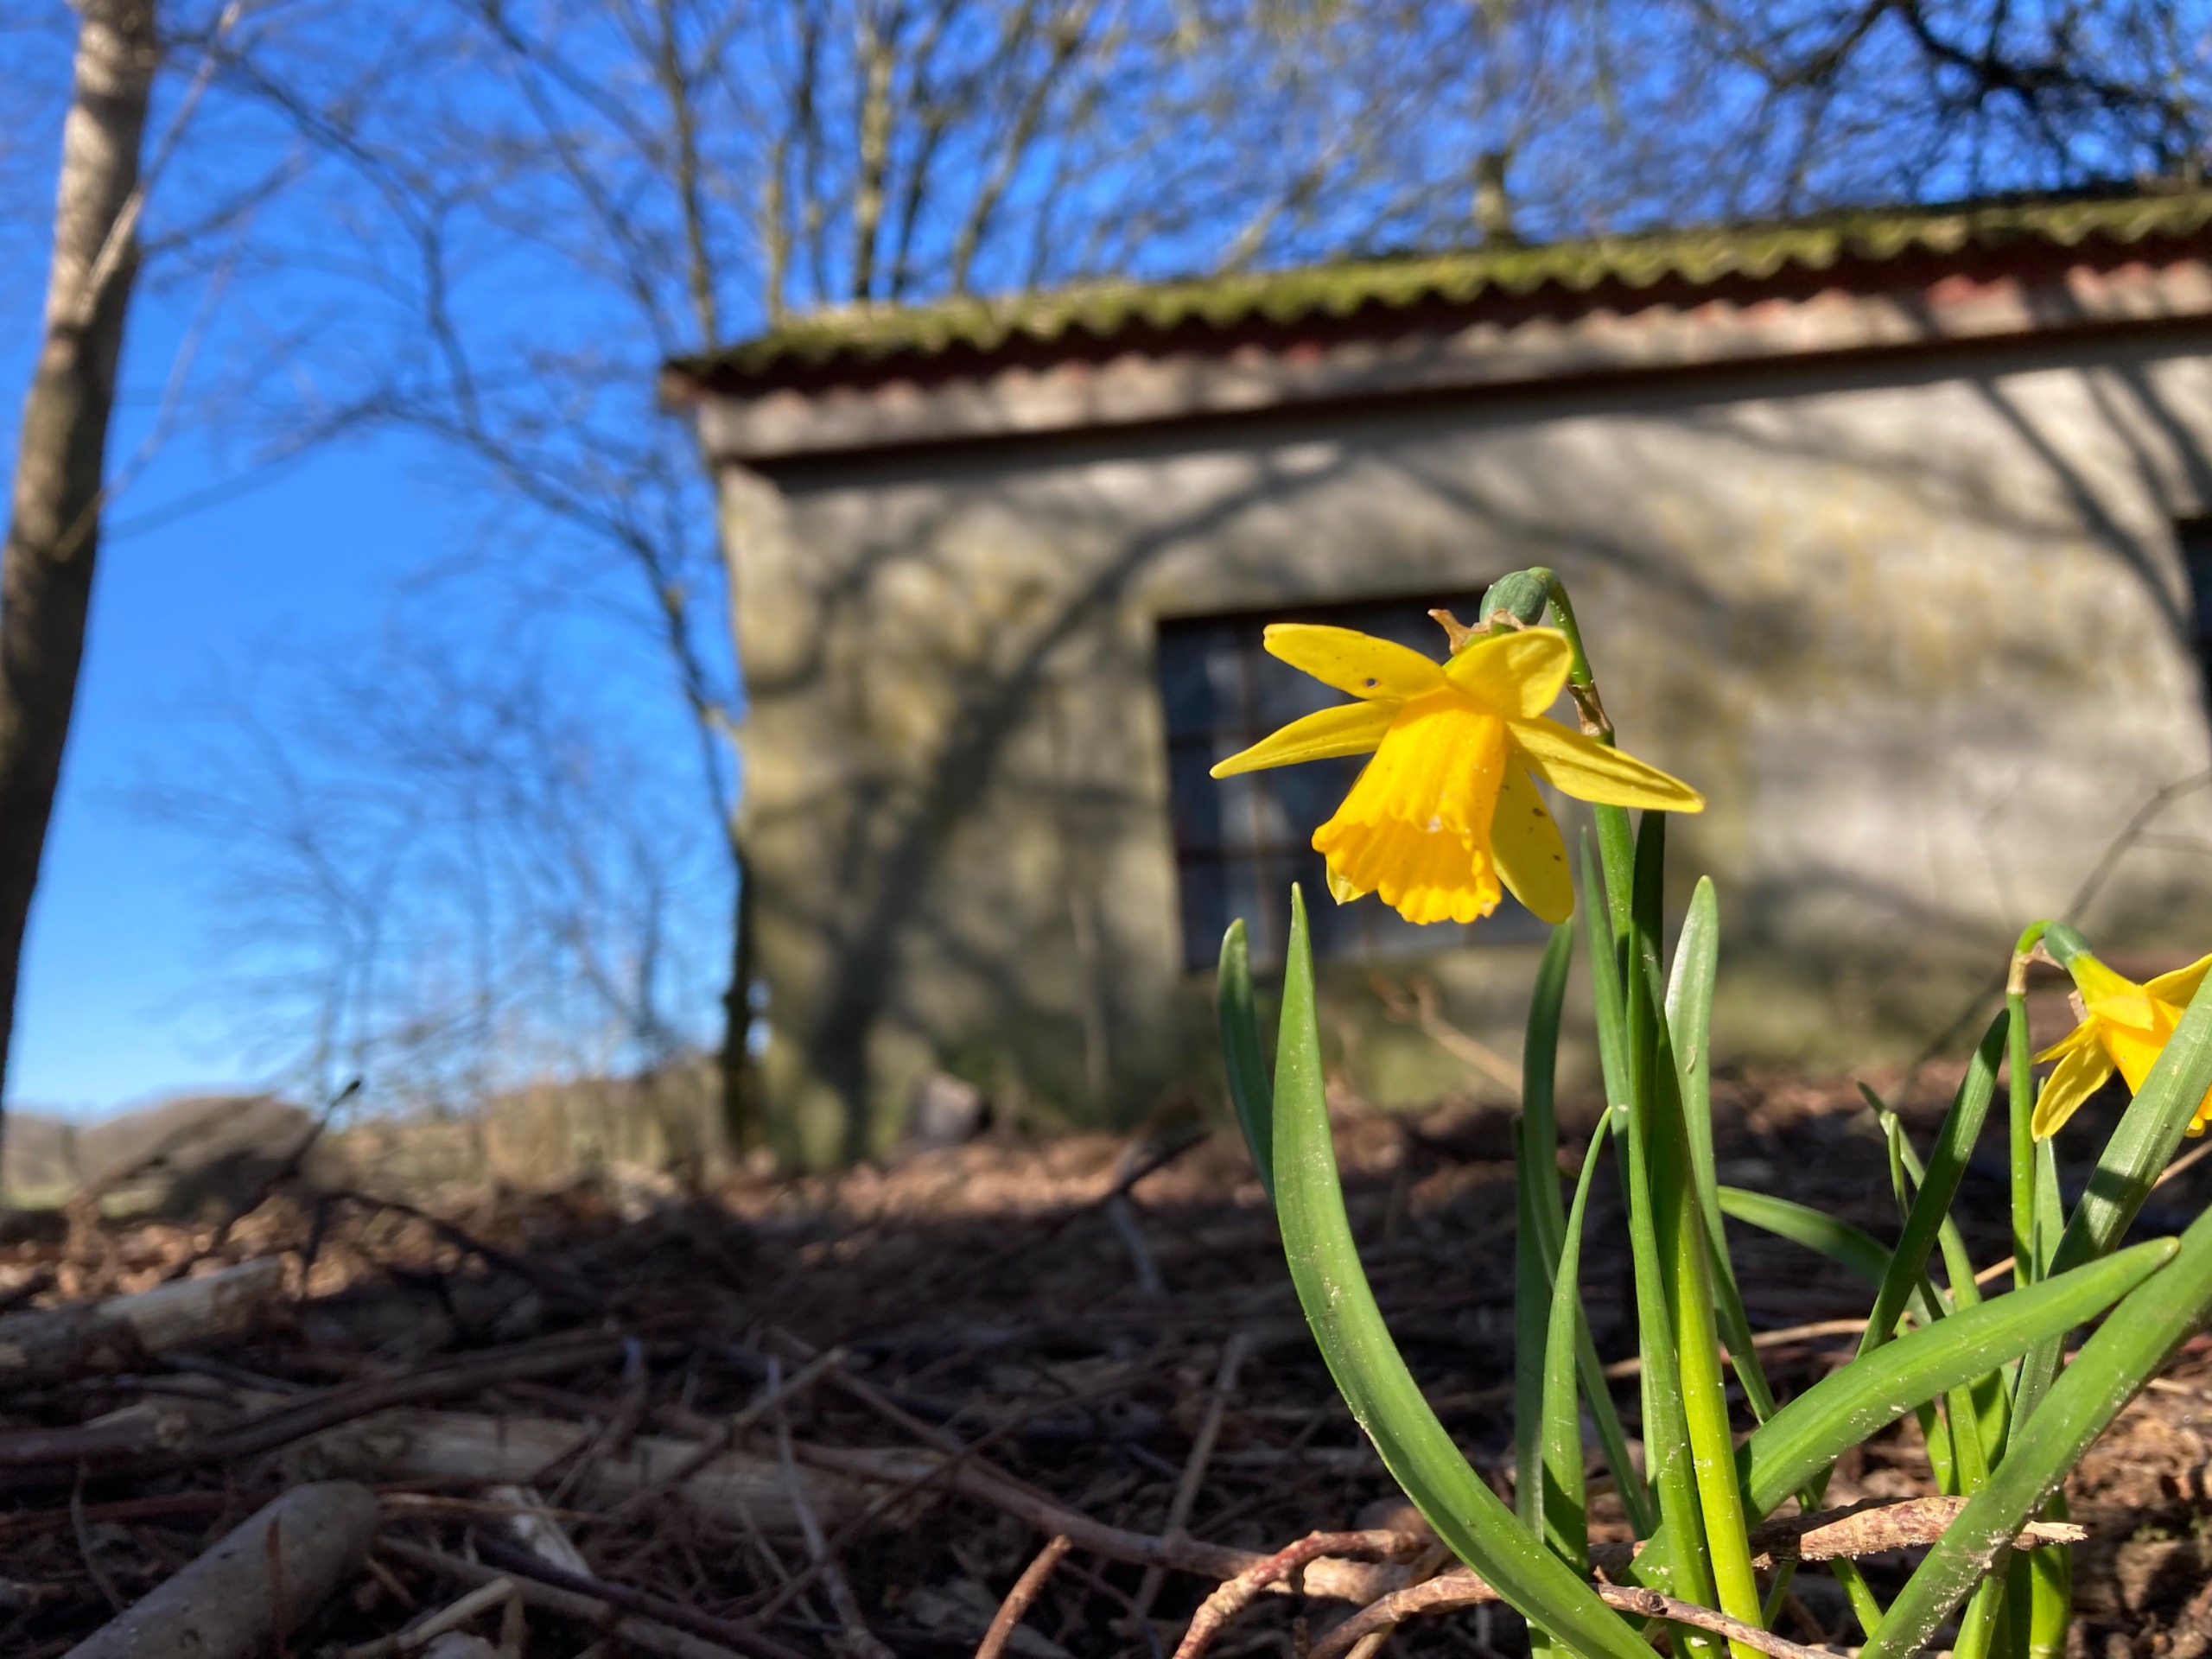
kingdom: Plantae
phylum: Tracheophyta
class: Liliopsida
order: Asparagales
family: Amaryllidaceae
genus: Narcissus
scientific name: Narcissus cyclazetta
